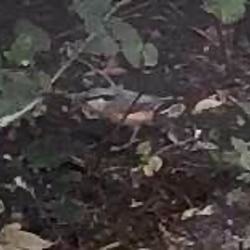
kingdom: Animalia
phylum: Chordata
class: Aves
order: Passeriformes
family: Sittidae
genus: Sitta
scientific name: Sitta europaea
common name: Spætmejse
